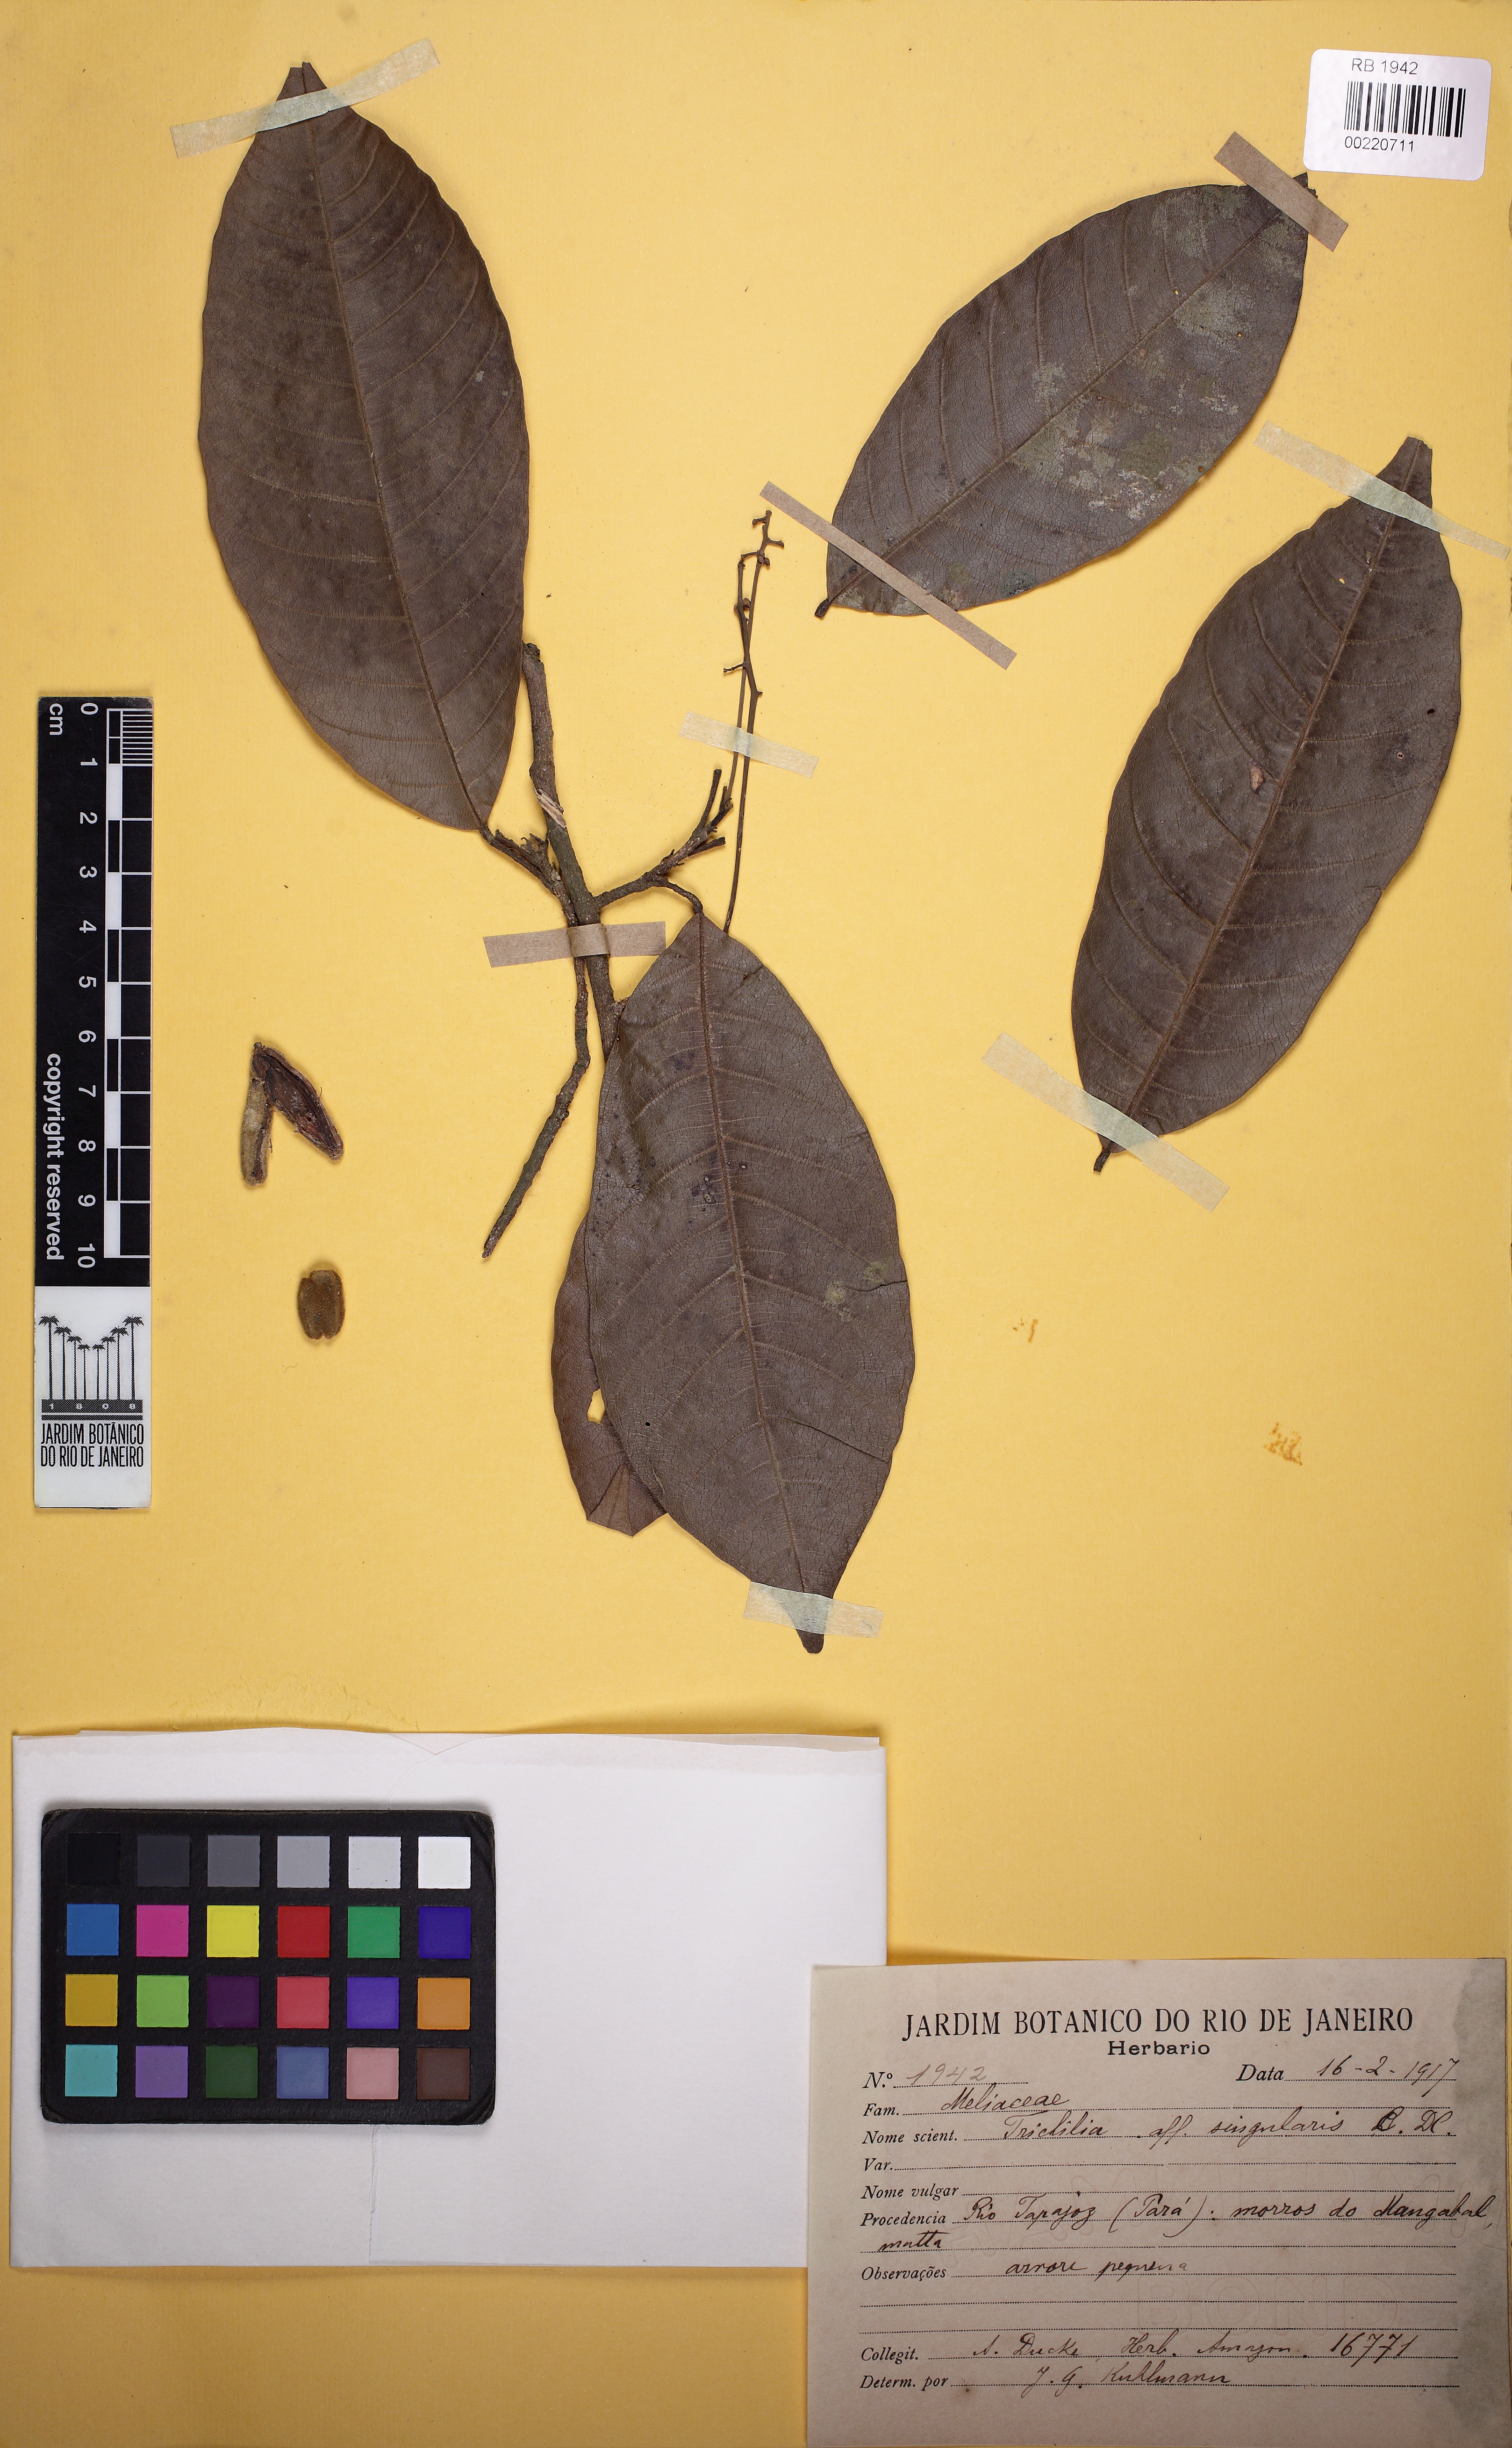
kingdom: Plantae
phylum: Tracheophyta
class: Magnoliopsida
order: Sapindales
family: Meliaceae
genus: Trichilia
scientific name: Trichilia singularis
